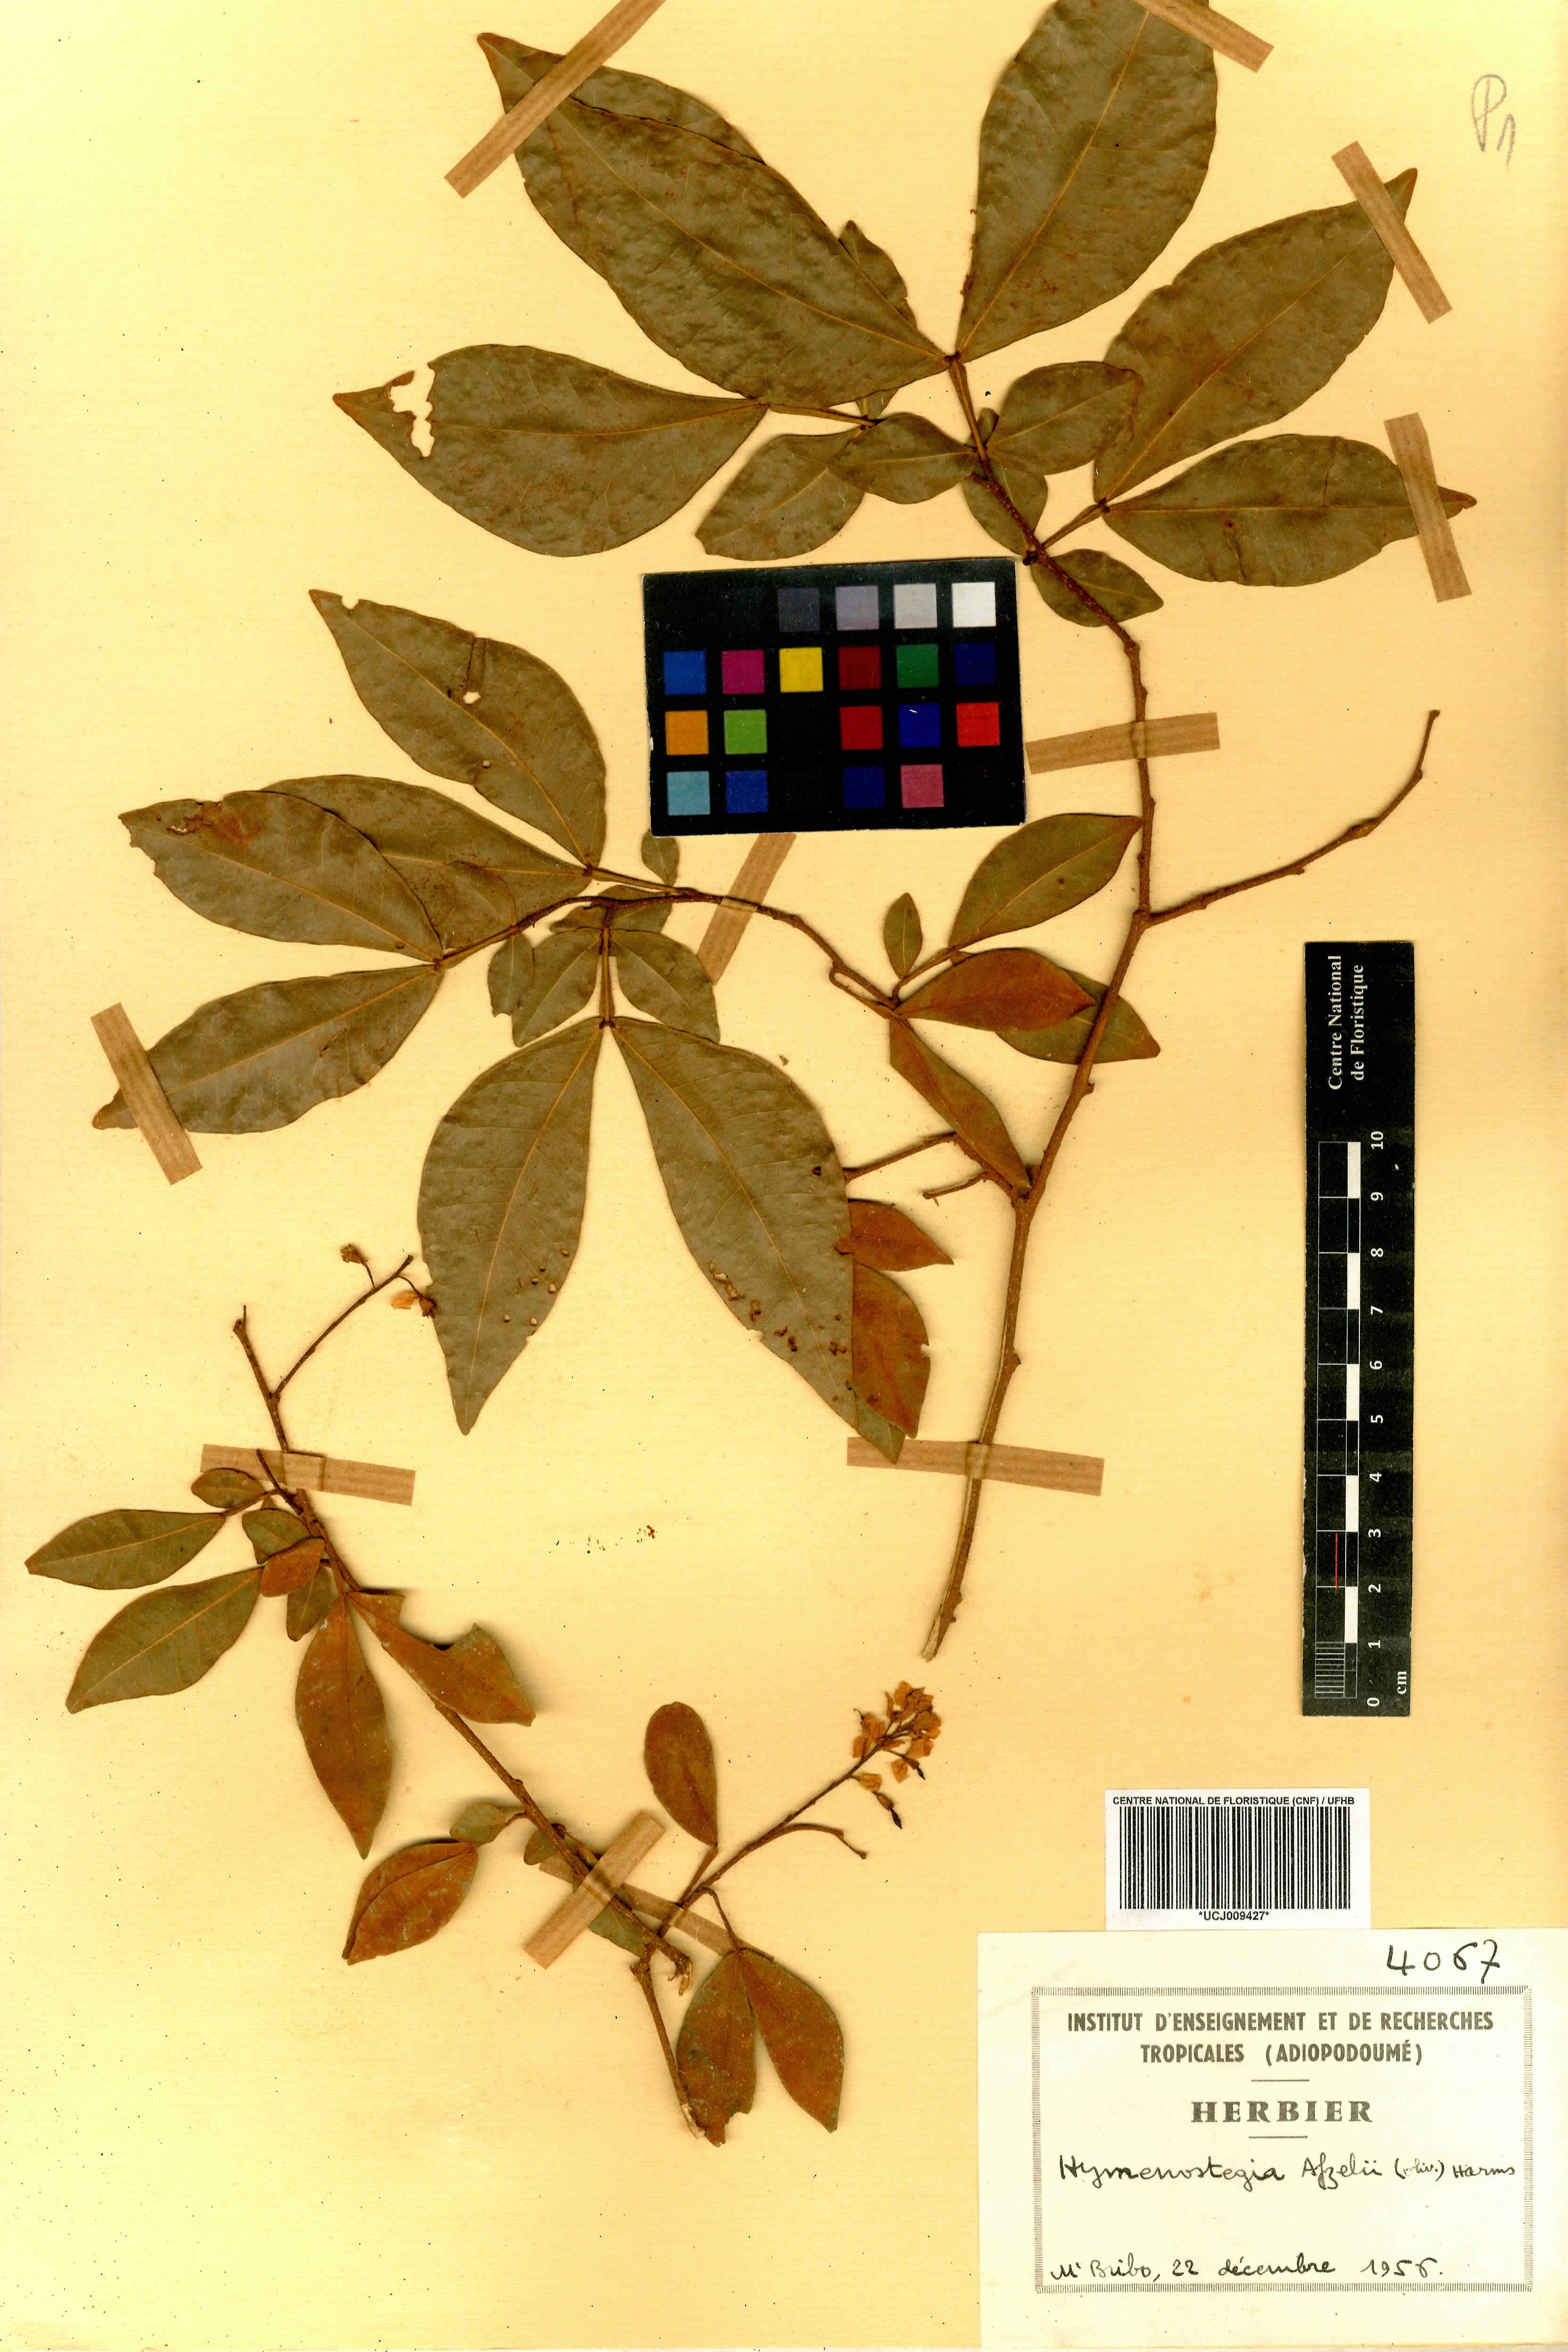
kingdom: Plantae
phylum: Tracheophyta
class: Magnoliopsida
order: Fabales
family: Fabaceae
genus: Annea
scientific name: Annea afzelii
